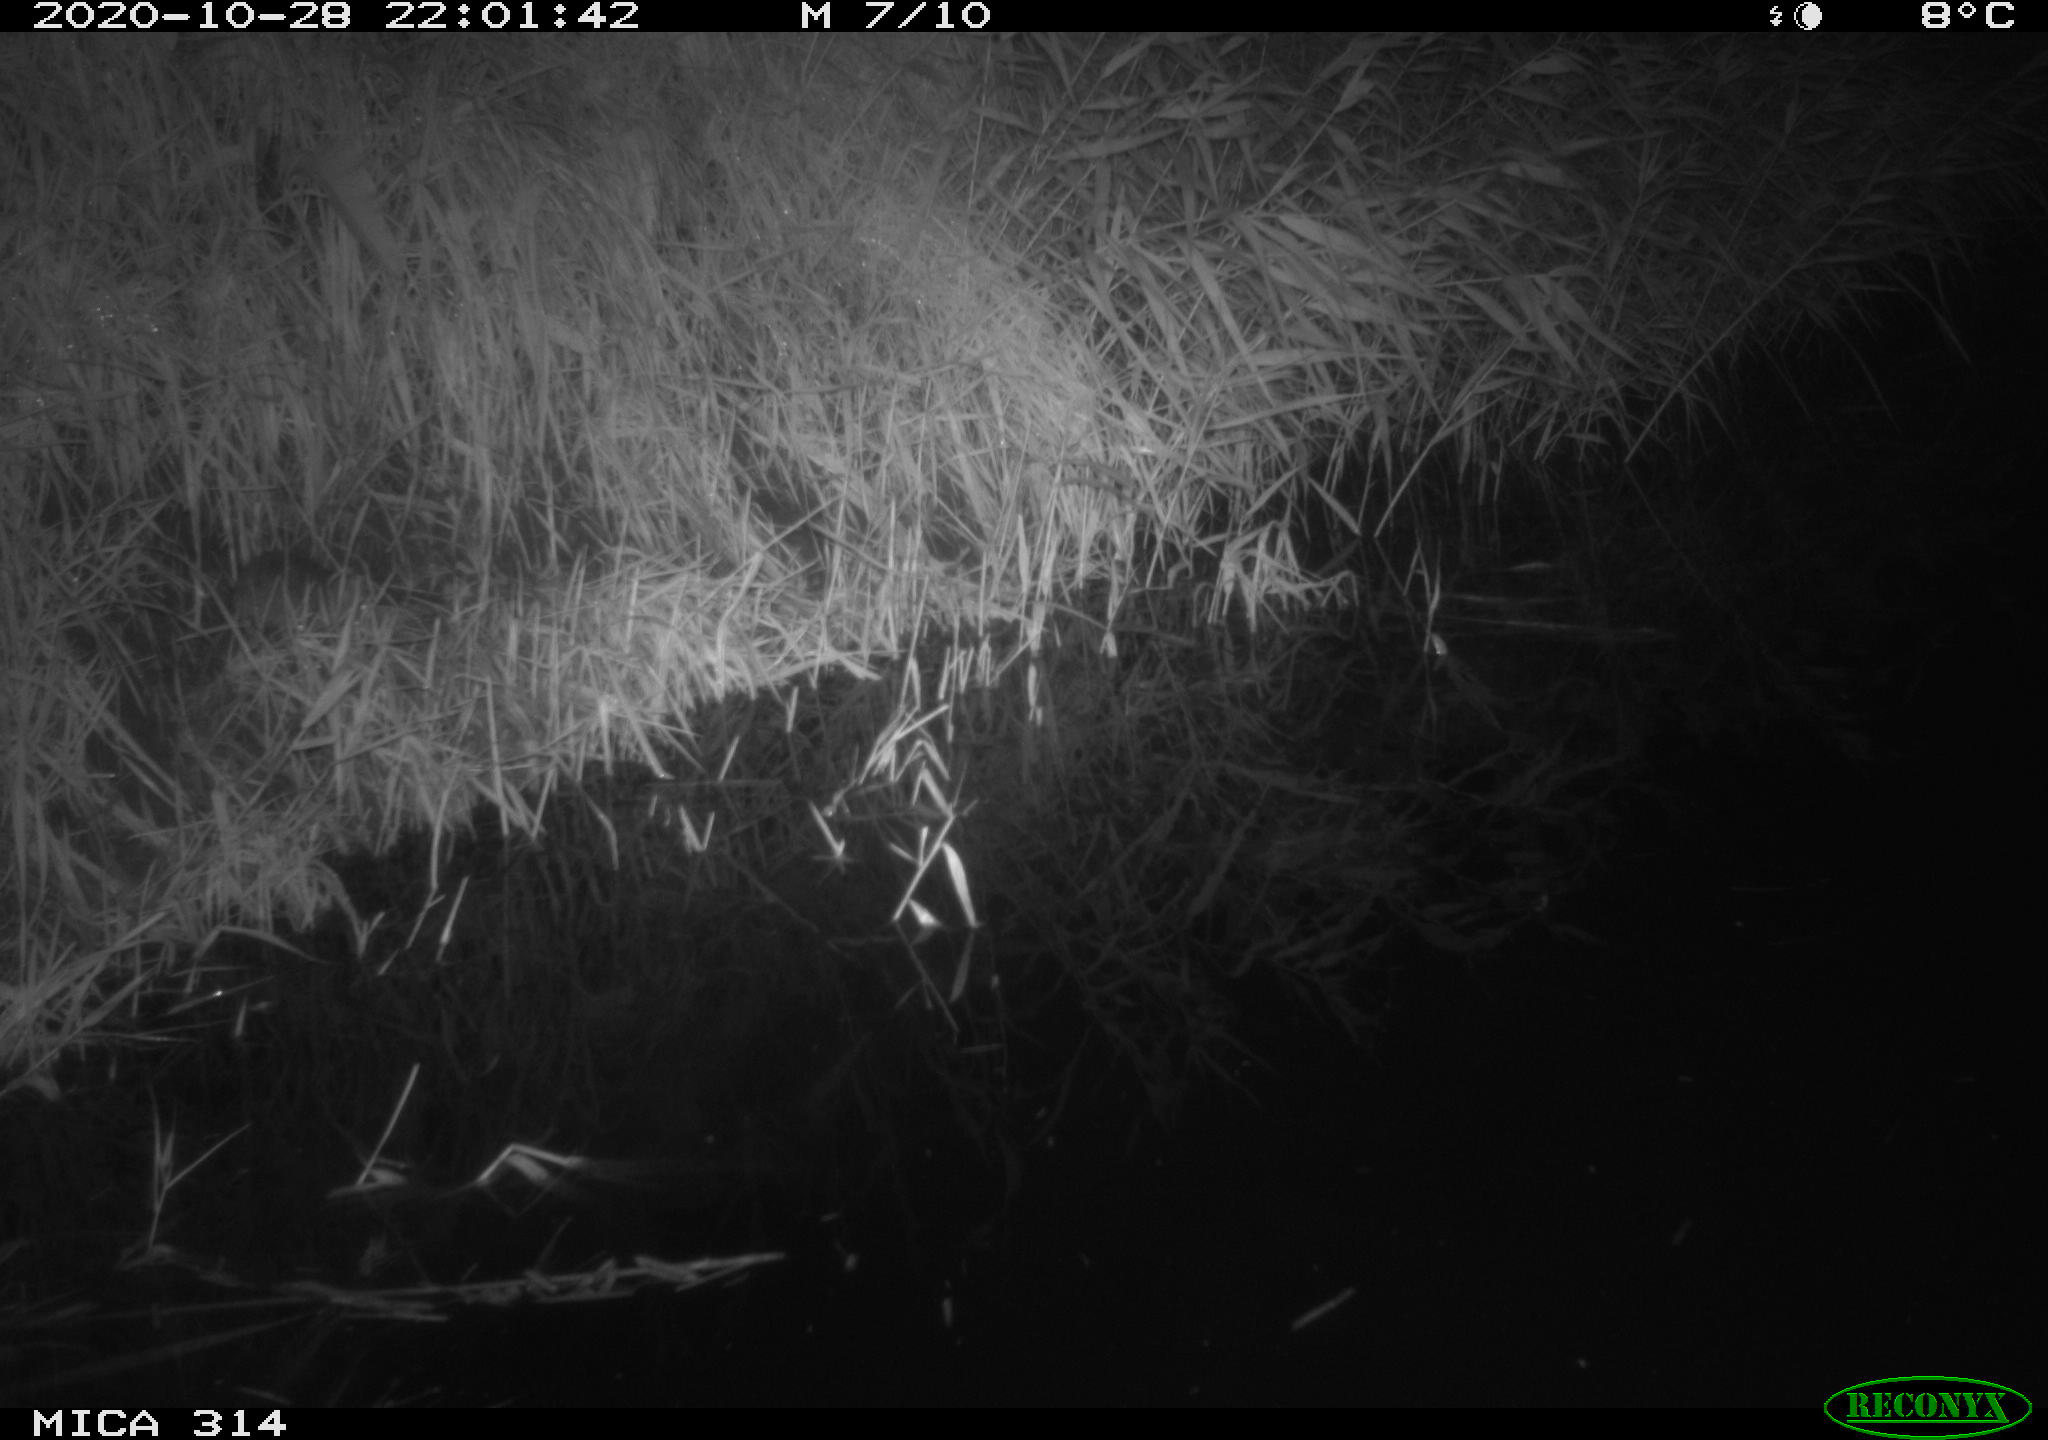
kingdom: Animalia
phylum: Chordata
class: Mammalia
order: Rodentia
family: Muridae
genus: Rattus
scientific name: Rattus norvegicus
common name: Brown rat
